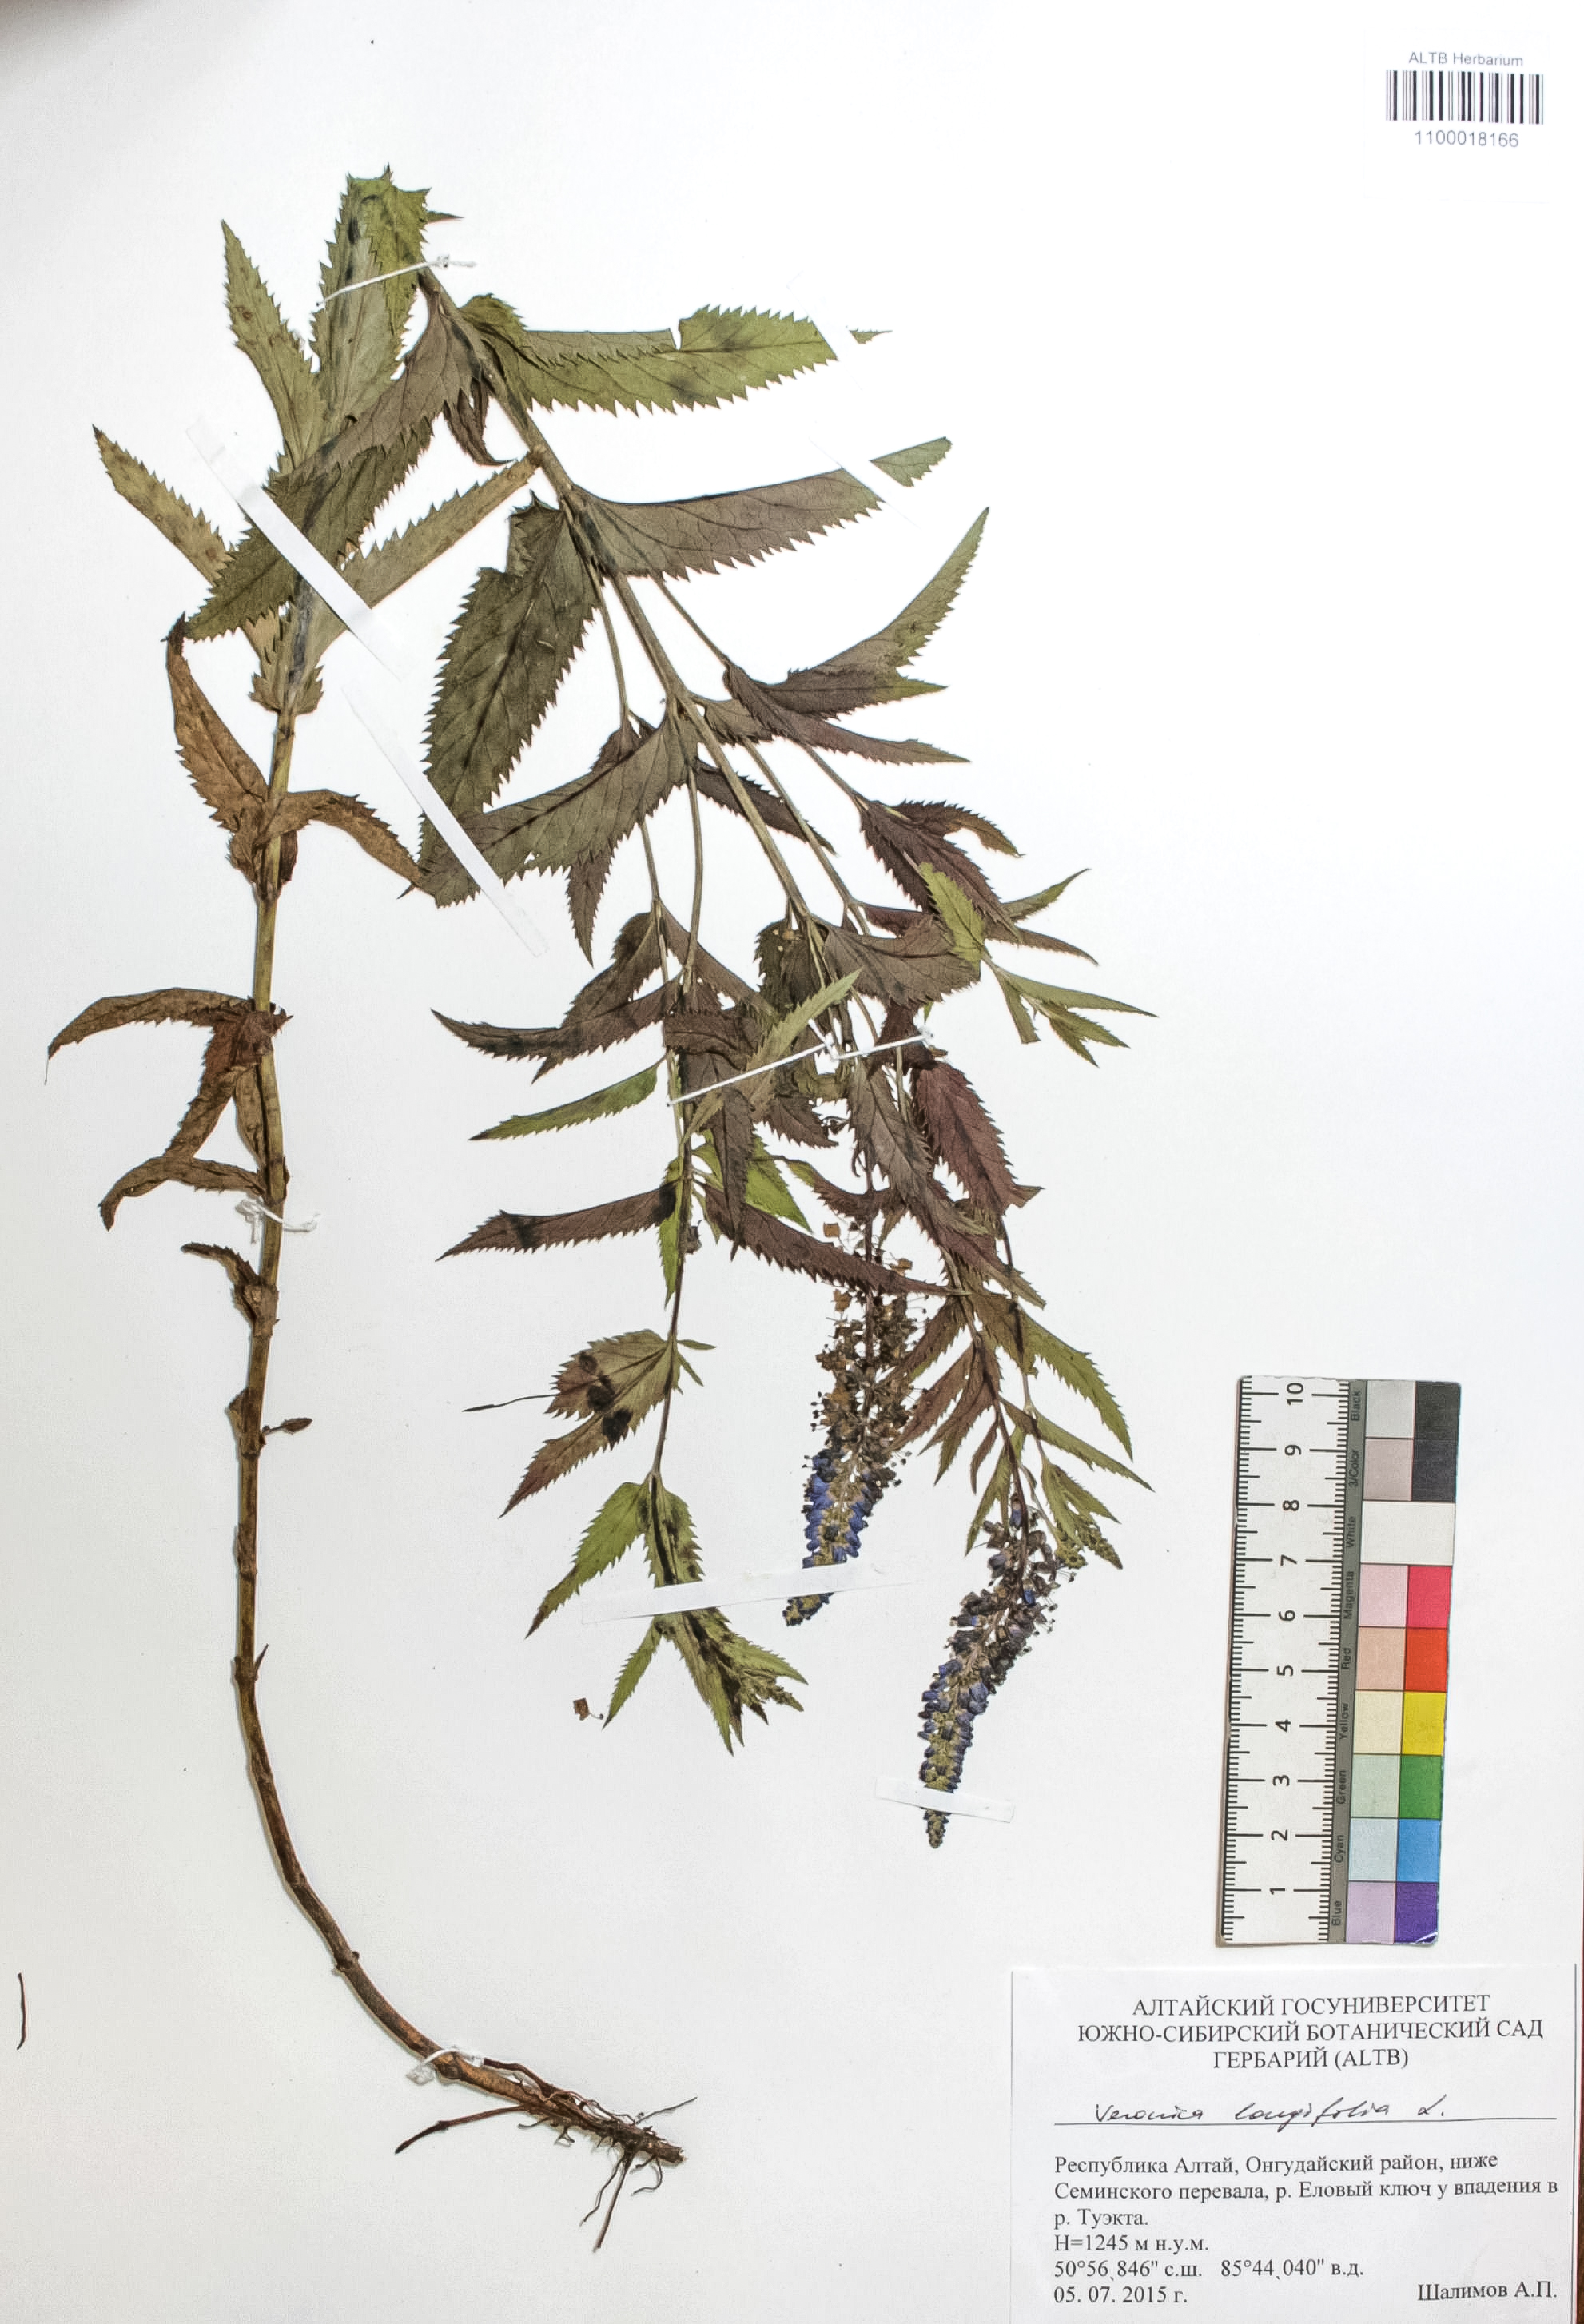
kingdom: Plantae
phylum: Tracheophyta
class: Magnoliopsida
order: Lamiales
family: Plantaginaceae
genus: Veronica
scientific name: Veronica longifolia
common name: Garden speedwell
